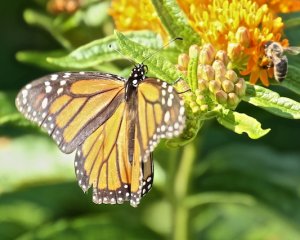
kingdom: Animalia
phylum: Arthropoda
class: Insecta
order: Lepidoptera
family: Nymphalidae
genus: Danaus
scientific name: Danaus plexippus
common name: Monarch
